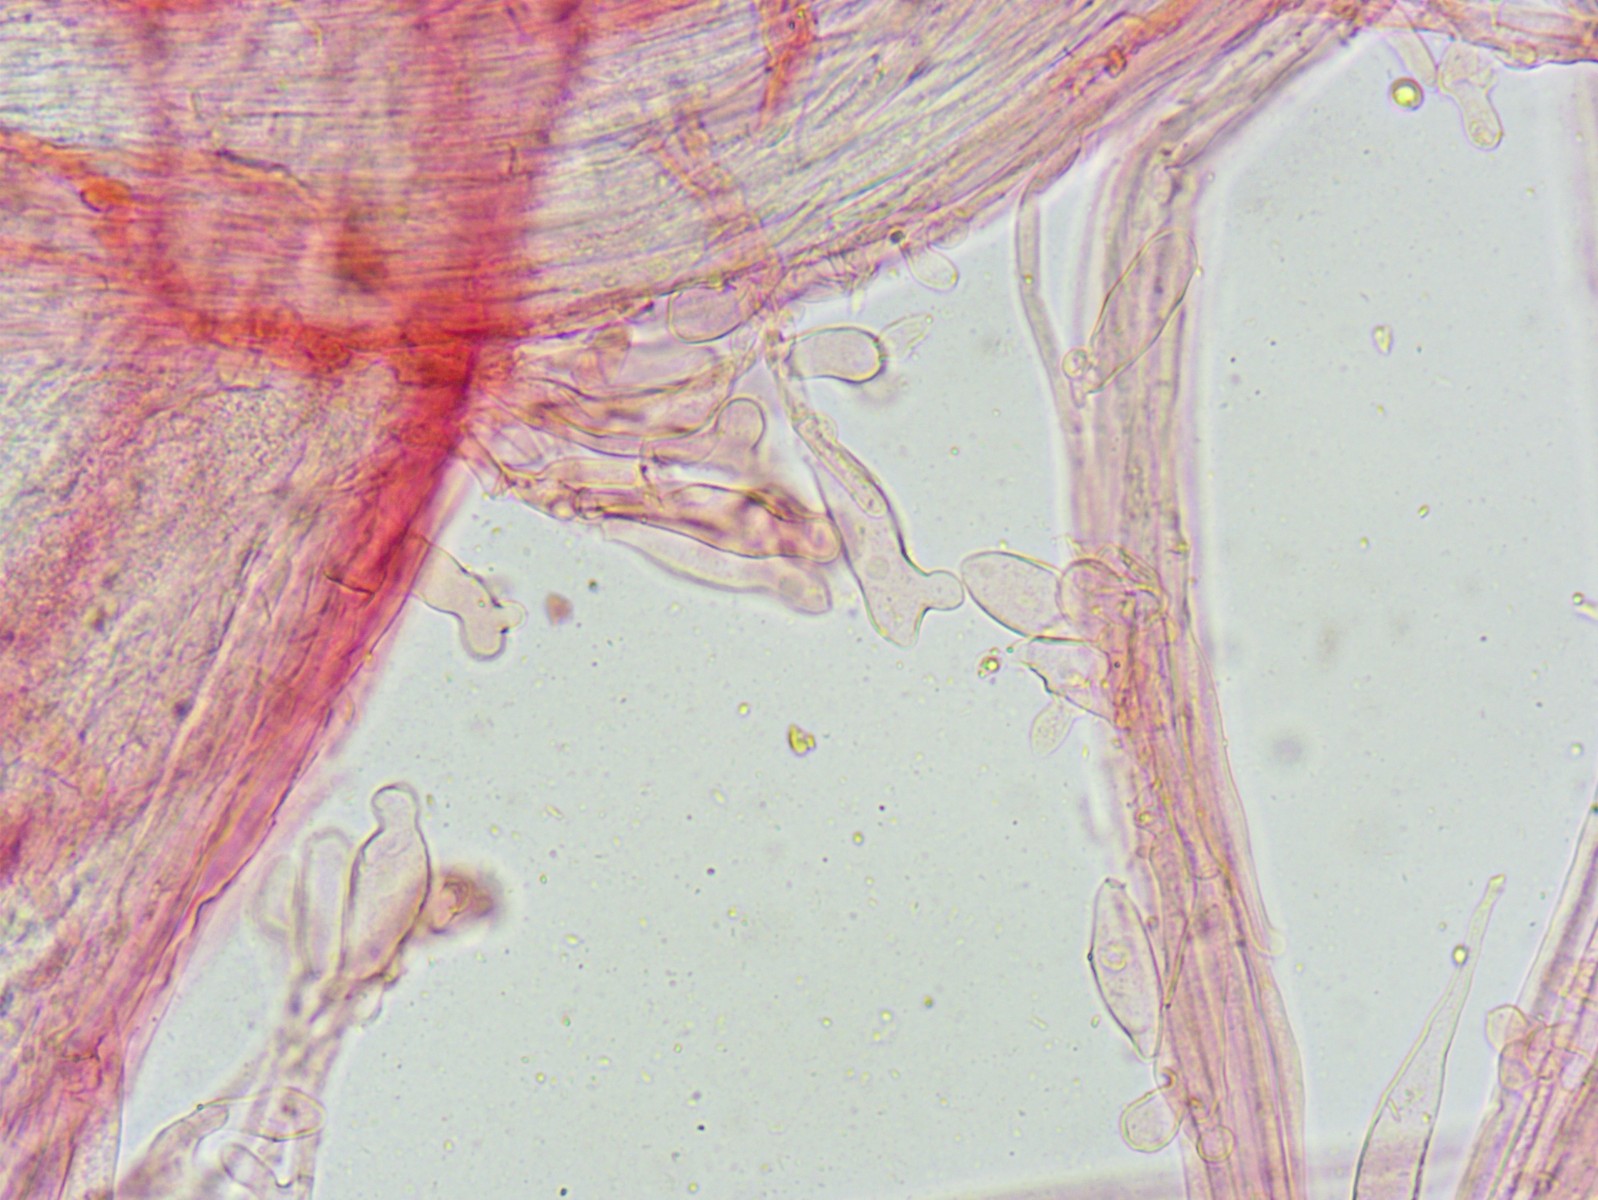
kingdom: Fungi
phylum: Basidiomycota
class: Agaricomycetes
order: Agaricales
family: Porotheleaceae
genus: Phloeomana
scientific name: Phloeomana minutula
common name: bleg huesvamp
